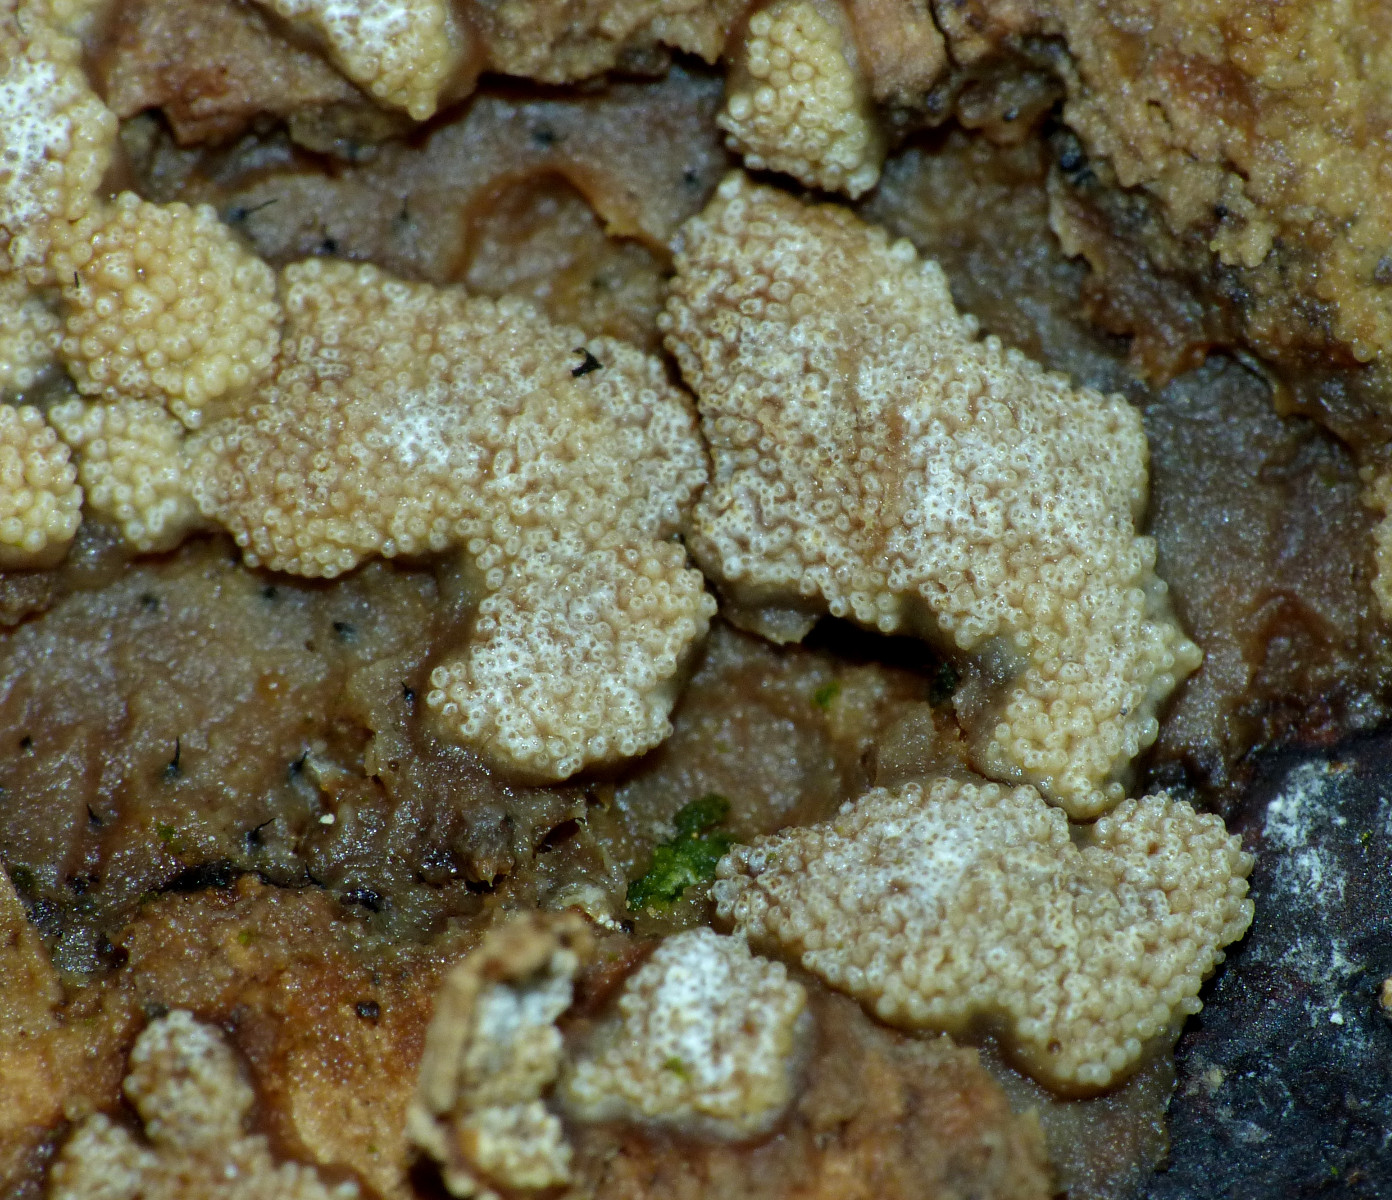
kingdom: Fungi
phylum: Ascomycota
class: Sordariomycetes
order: Hypocreales
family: Hypocreaceae
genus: Trichoderma
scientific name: Trichoderma pulvinatum
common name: snyltende kødkerne
